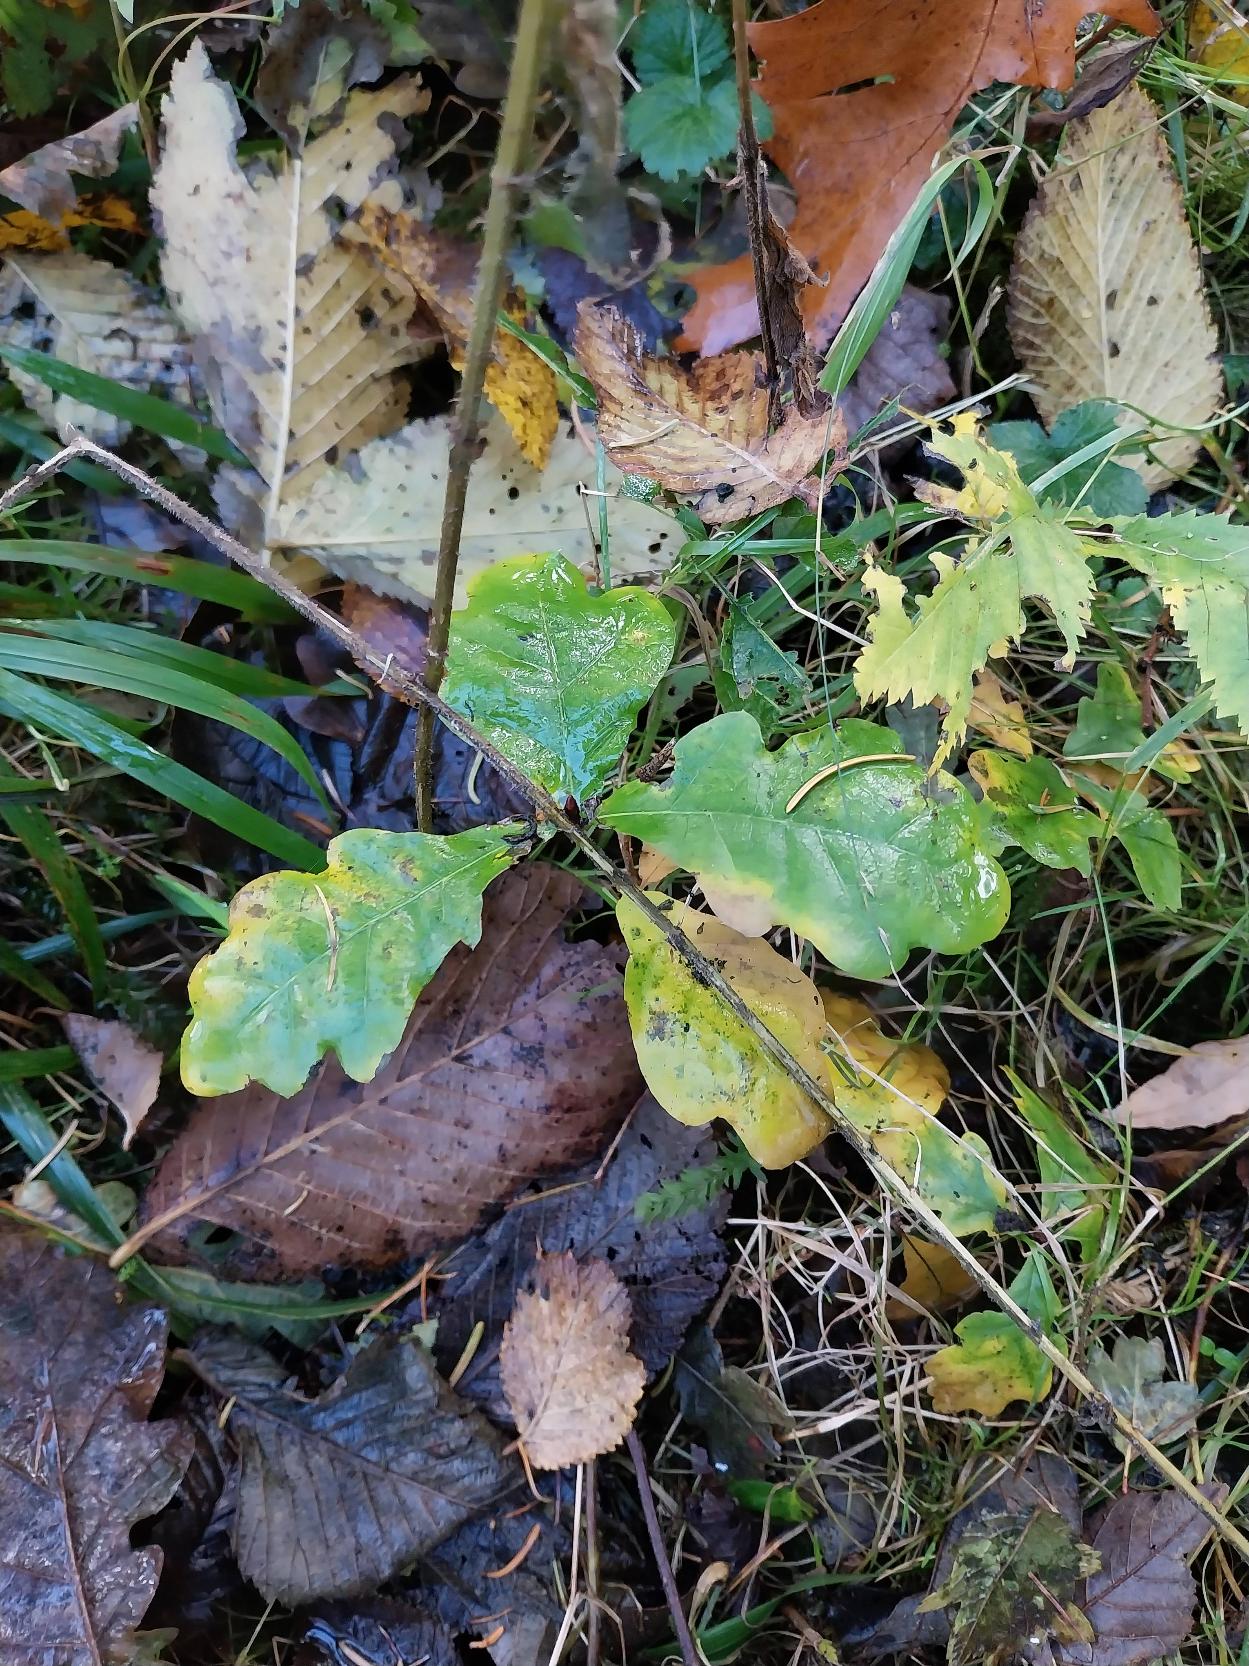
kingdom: Plantae
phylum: Tracheophyta
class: Magnoliopsida
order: Fagales
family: Fagaceae
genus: Quercus
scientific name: Quercus robur
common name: Stilk-eg/almindelig eg
